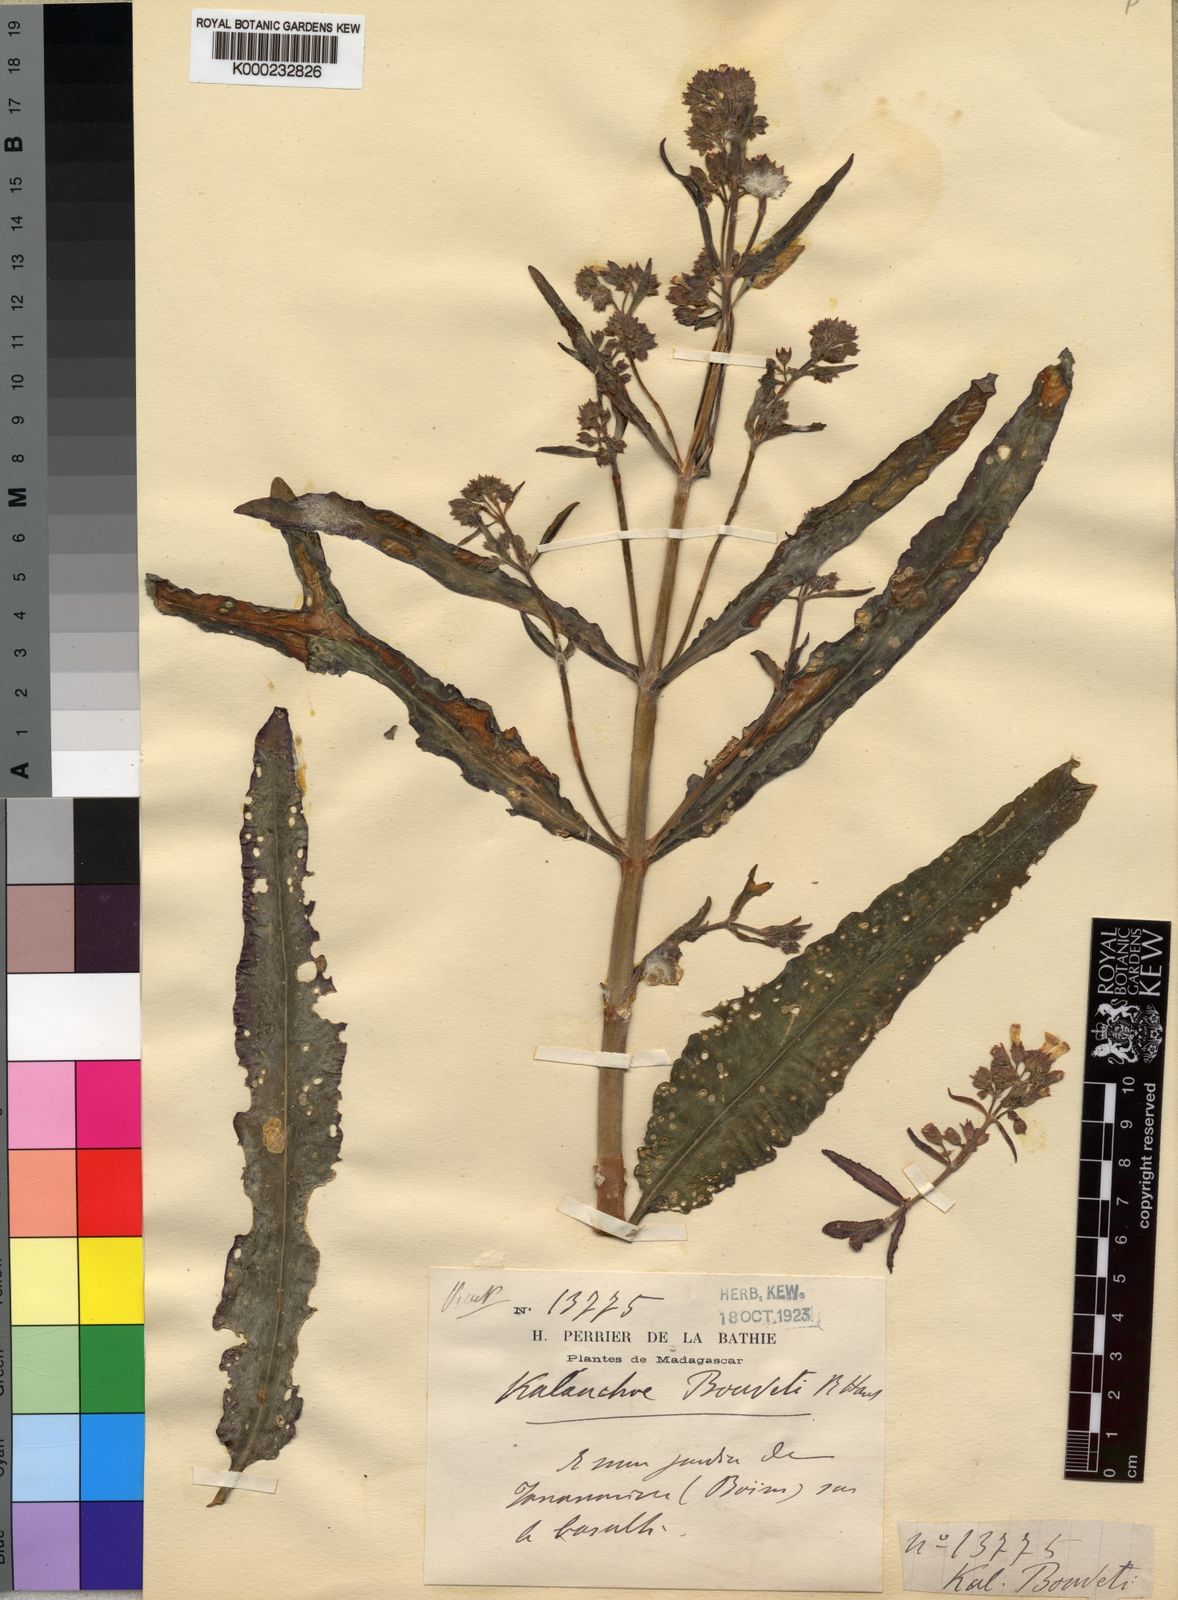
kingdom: Chromista
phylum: Ciliophora
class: Gymnostomatea
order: Spathidiida
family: Spathidiidae
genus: Bryophyllum
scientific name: Bryophyllum
